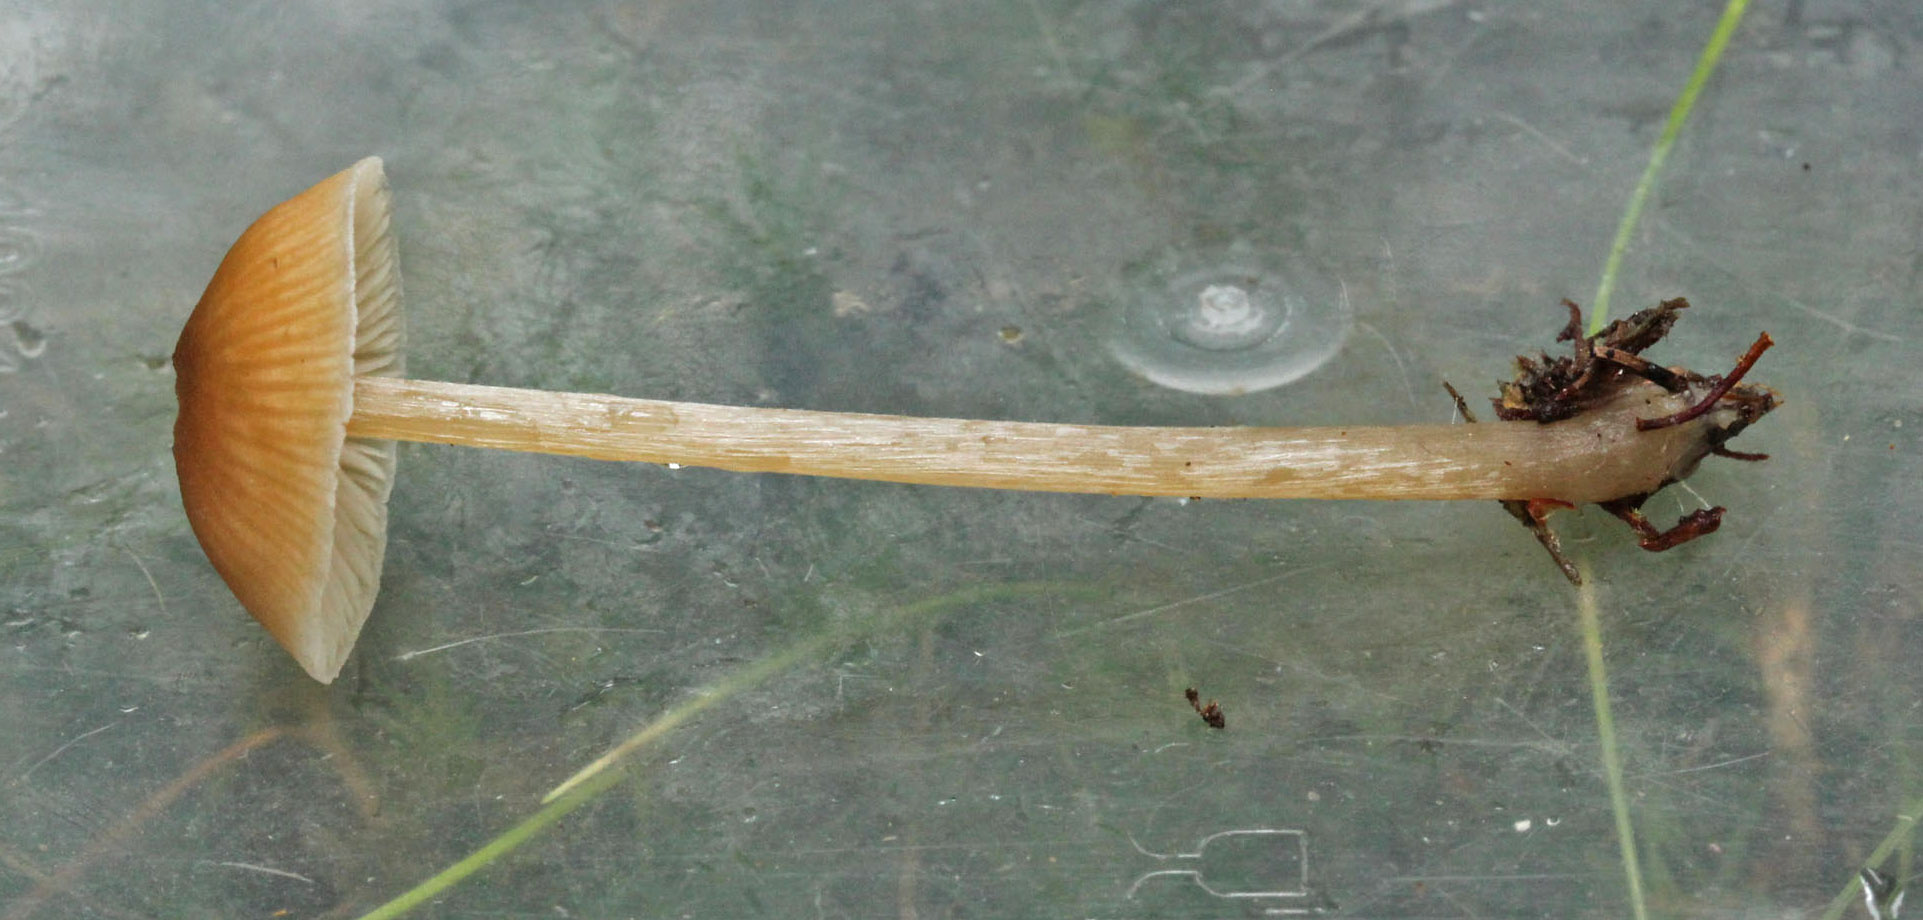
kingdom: Fungi
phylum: Basidiomycota
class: Agaricomycetes
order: Agaricales
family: Entolomataceae
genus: Entoloma
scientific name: Entoloma cetratum
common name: voks-rødblad
